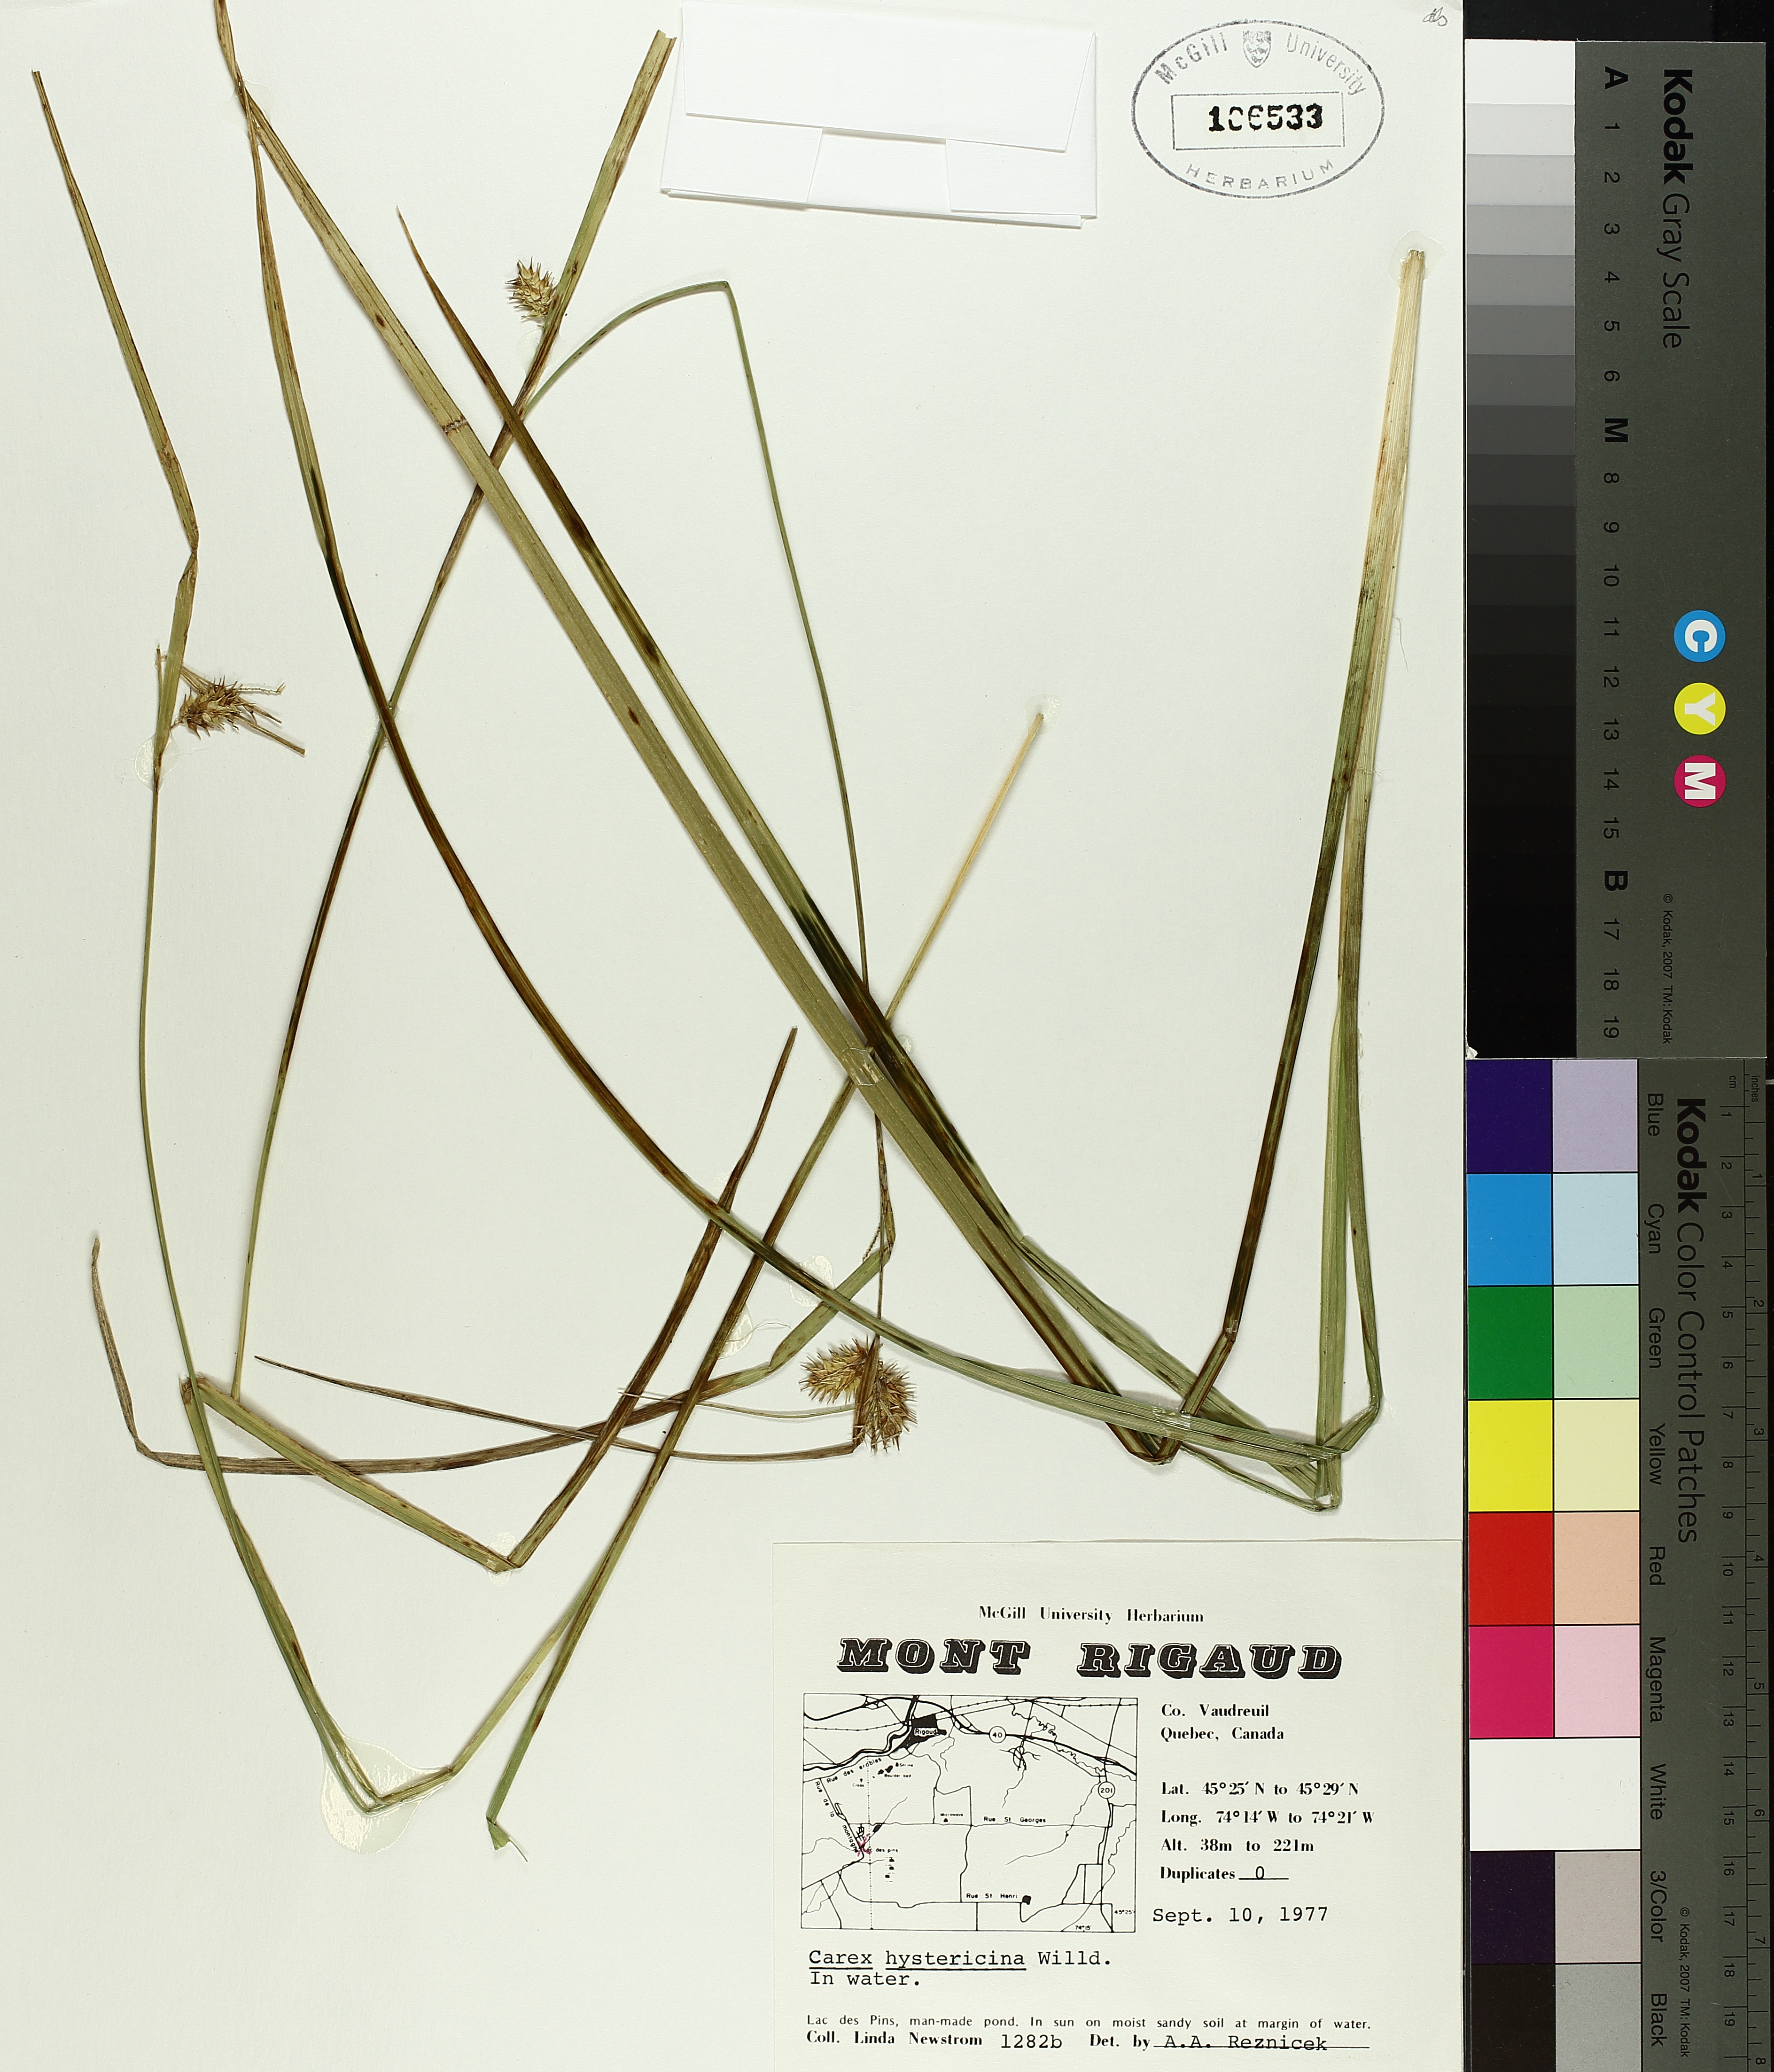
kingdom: Plantae
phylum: Tracheophyta
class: Liliopsida
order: Poales
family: Cyperaceae
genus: Carex
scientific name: Carex hystericina
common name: Bottlebrush sedge
